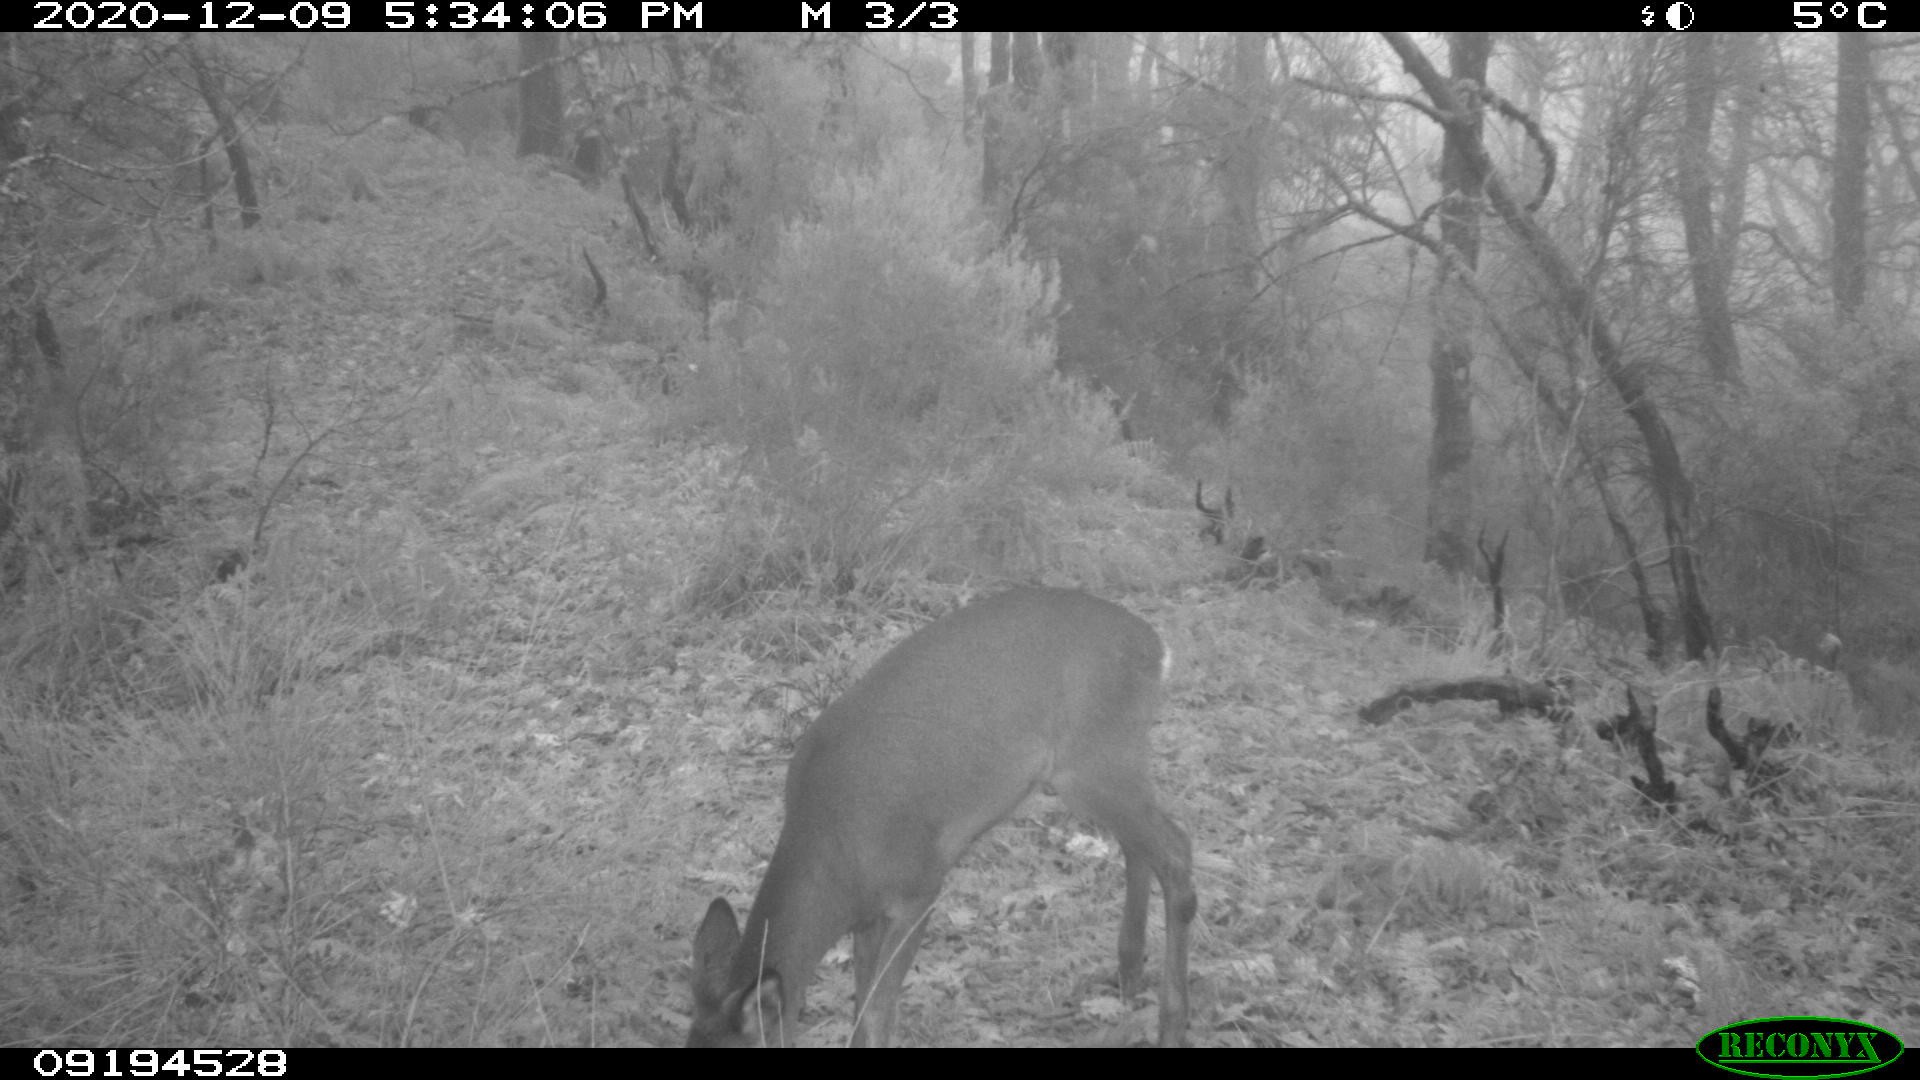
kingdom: Animalia
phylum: Chordata
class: Mammalia
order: Artiodactyla
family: Cervidae
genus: Capreolus
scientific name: Capreolus capreolus
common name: Western roe deer
